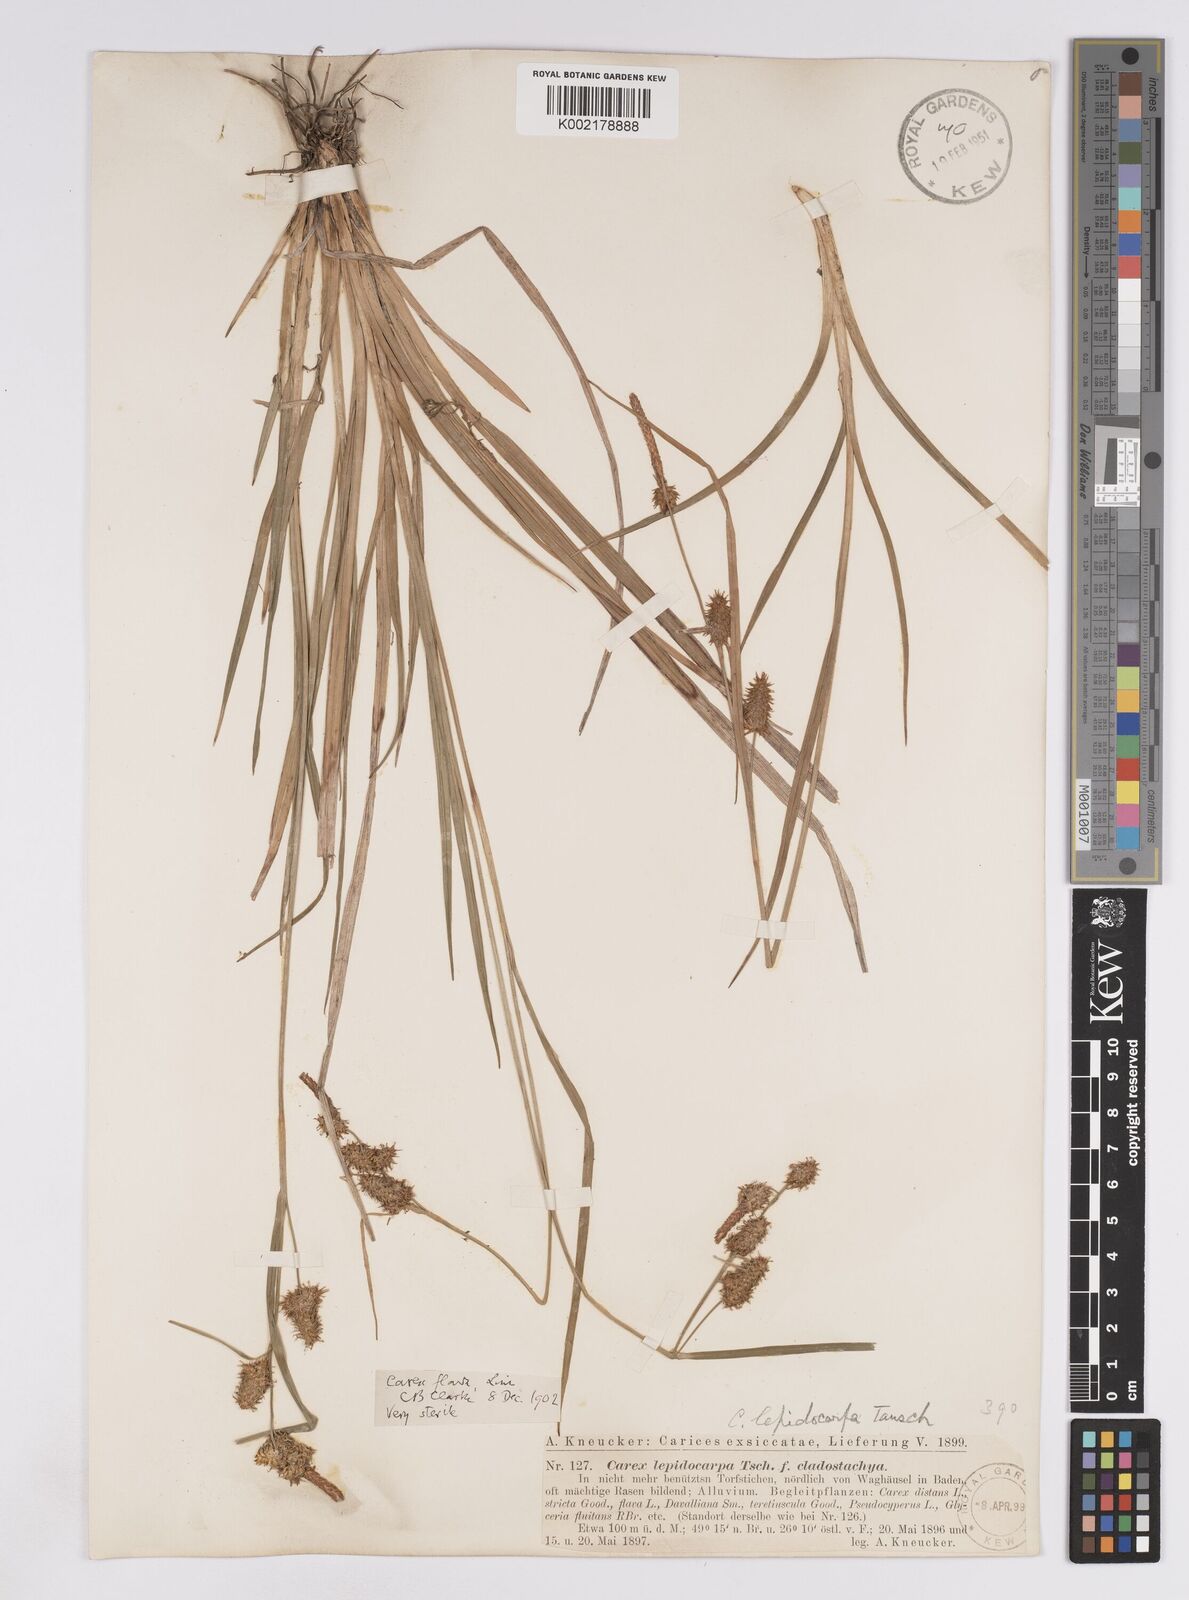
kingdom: Plantae
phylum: Tracheophyta
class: Liliopsida
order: Poales
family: Cyperaceae
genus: Carex
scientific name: Carex lepidocarpa
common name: Long-stalked yellow-sedge
